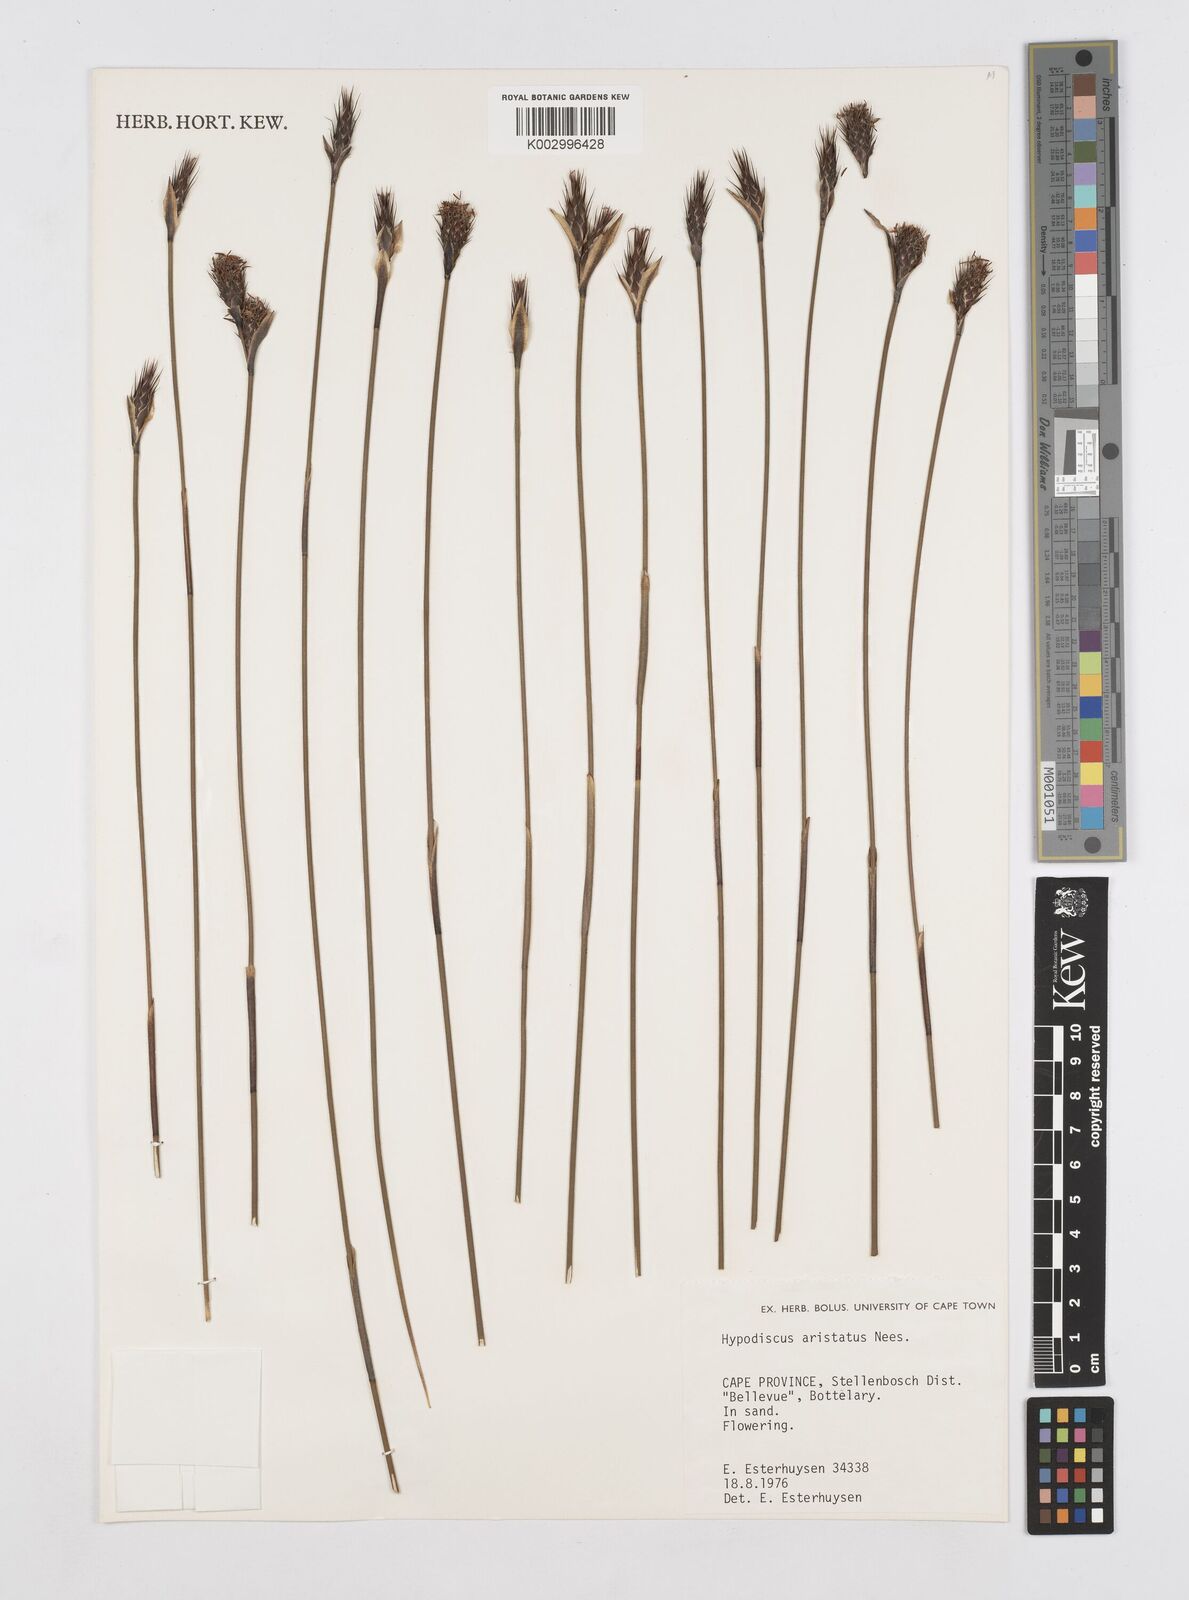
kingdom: Plantae
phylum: Tracheophyta
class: Liliopsida
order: Poales
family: Restionaceae
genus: Hypodiscus
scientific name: Hypodiscus aristatus
